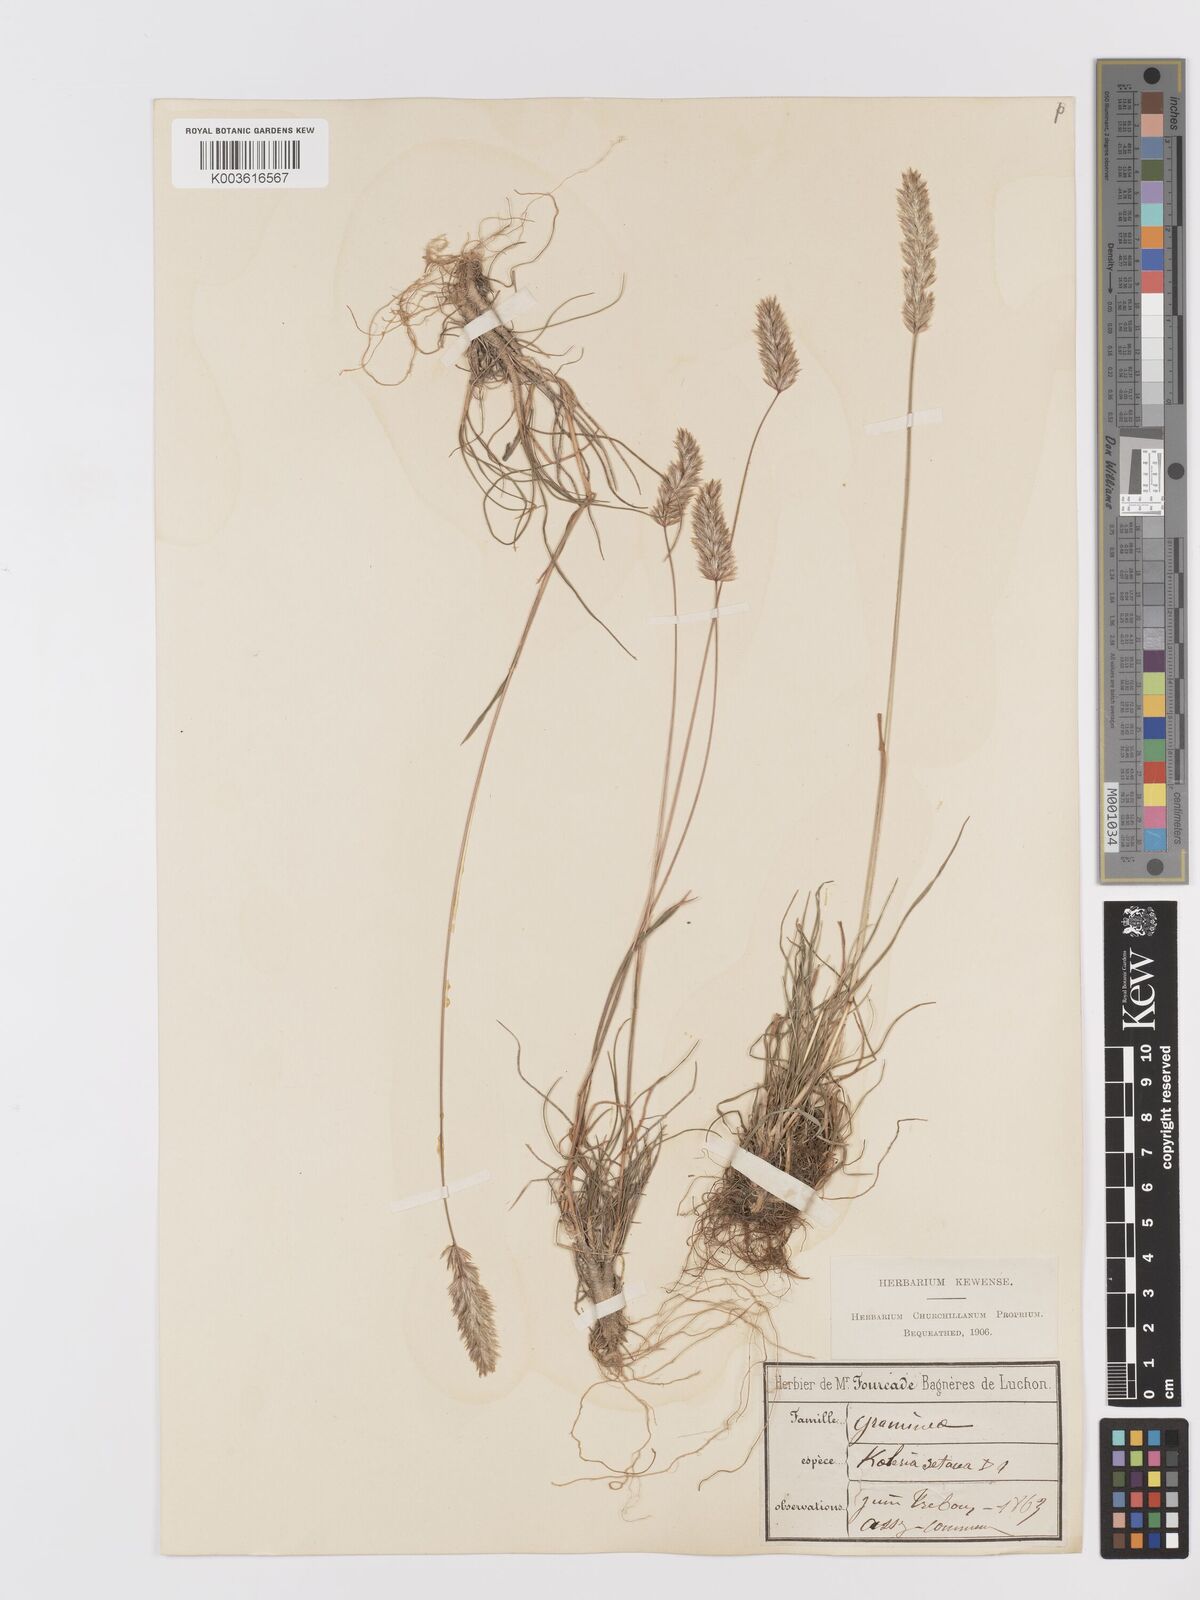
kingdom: Plantae
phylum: Tracheophyta
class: Liliopsida
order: Poales
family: Poaceae
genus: Koeleria
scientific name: Koeleria vallesiana
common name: Somerset hair-grass
